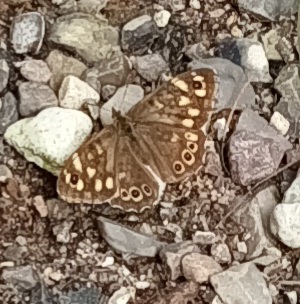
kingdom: Animalia
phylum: Arthropoda
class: Insecta
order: Lepidoptera
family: Nymphalidae
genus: Pararge
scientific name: Pararge aegeria
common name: Skovrandøje
